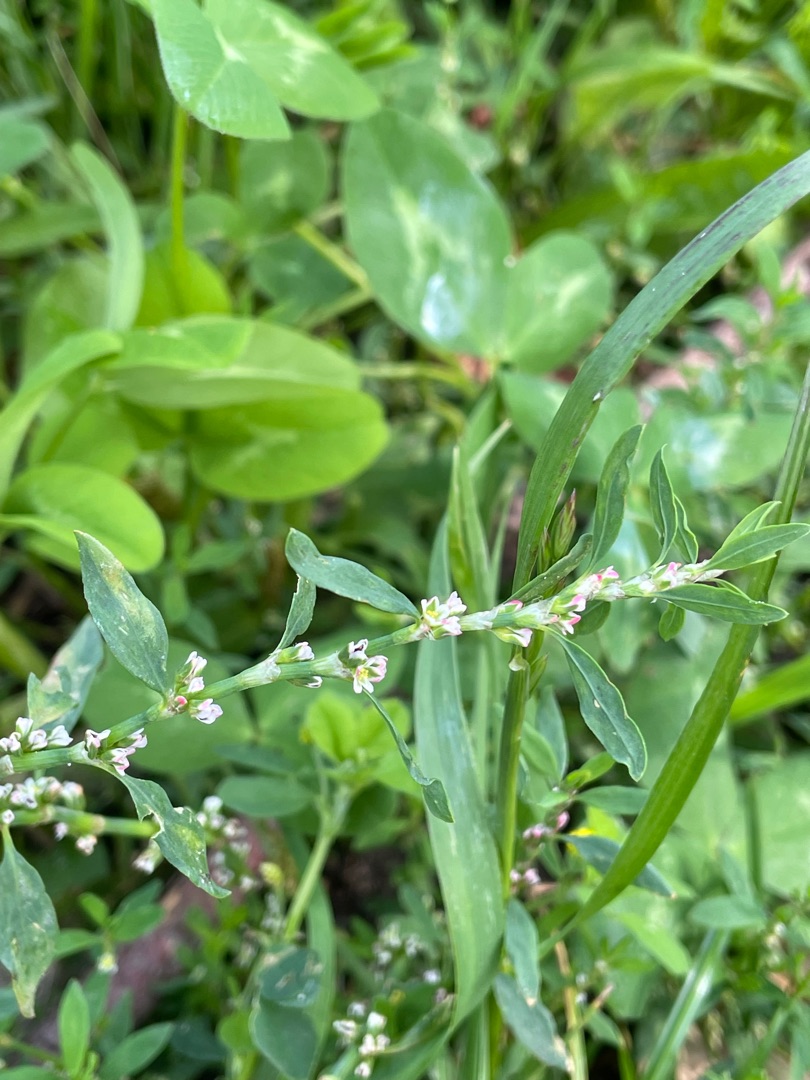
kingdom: Plantae
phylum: Tracheophyta
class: Magnoliopsida
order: Caryophyllales
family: Polygonaceae
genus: Polygonum
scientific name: Polygonum aviculare
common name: Vej-pileurt
